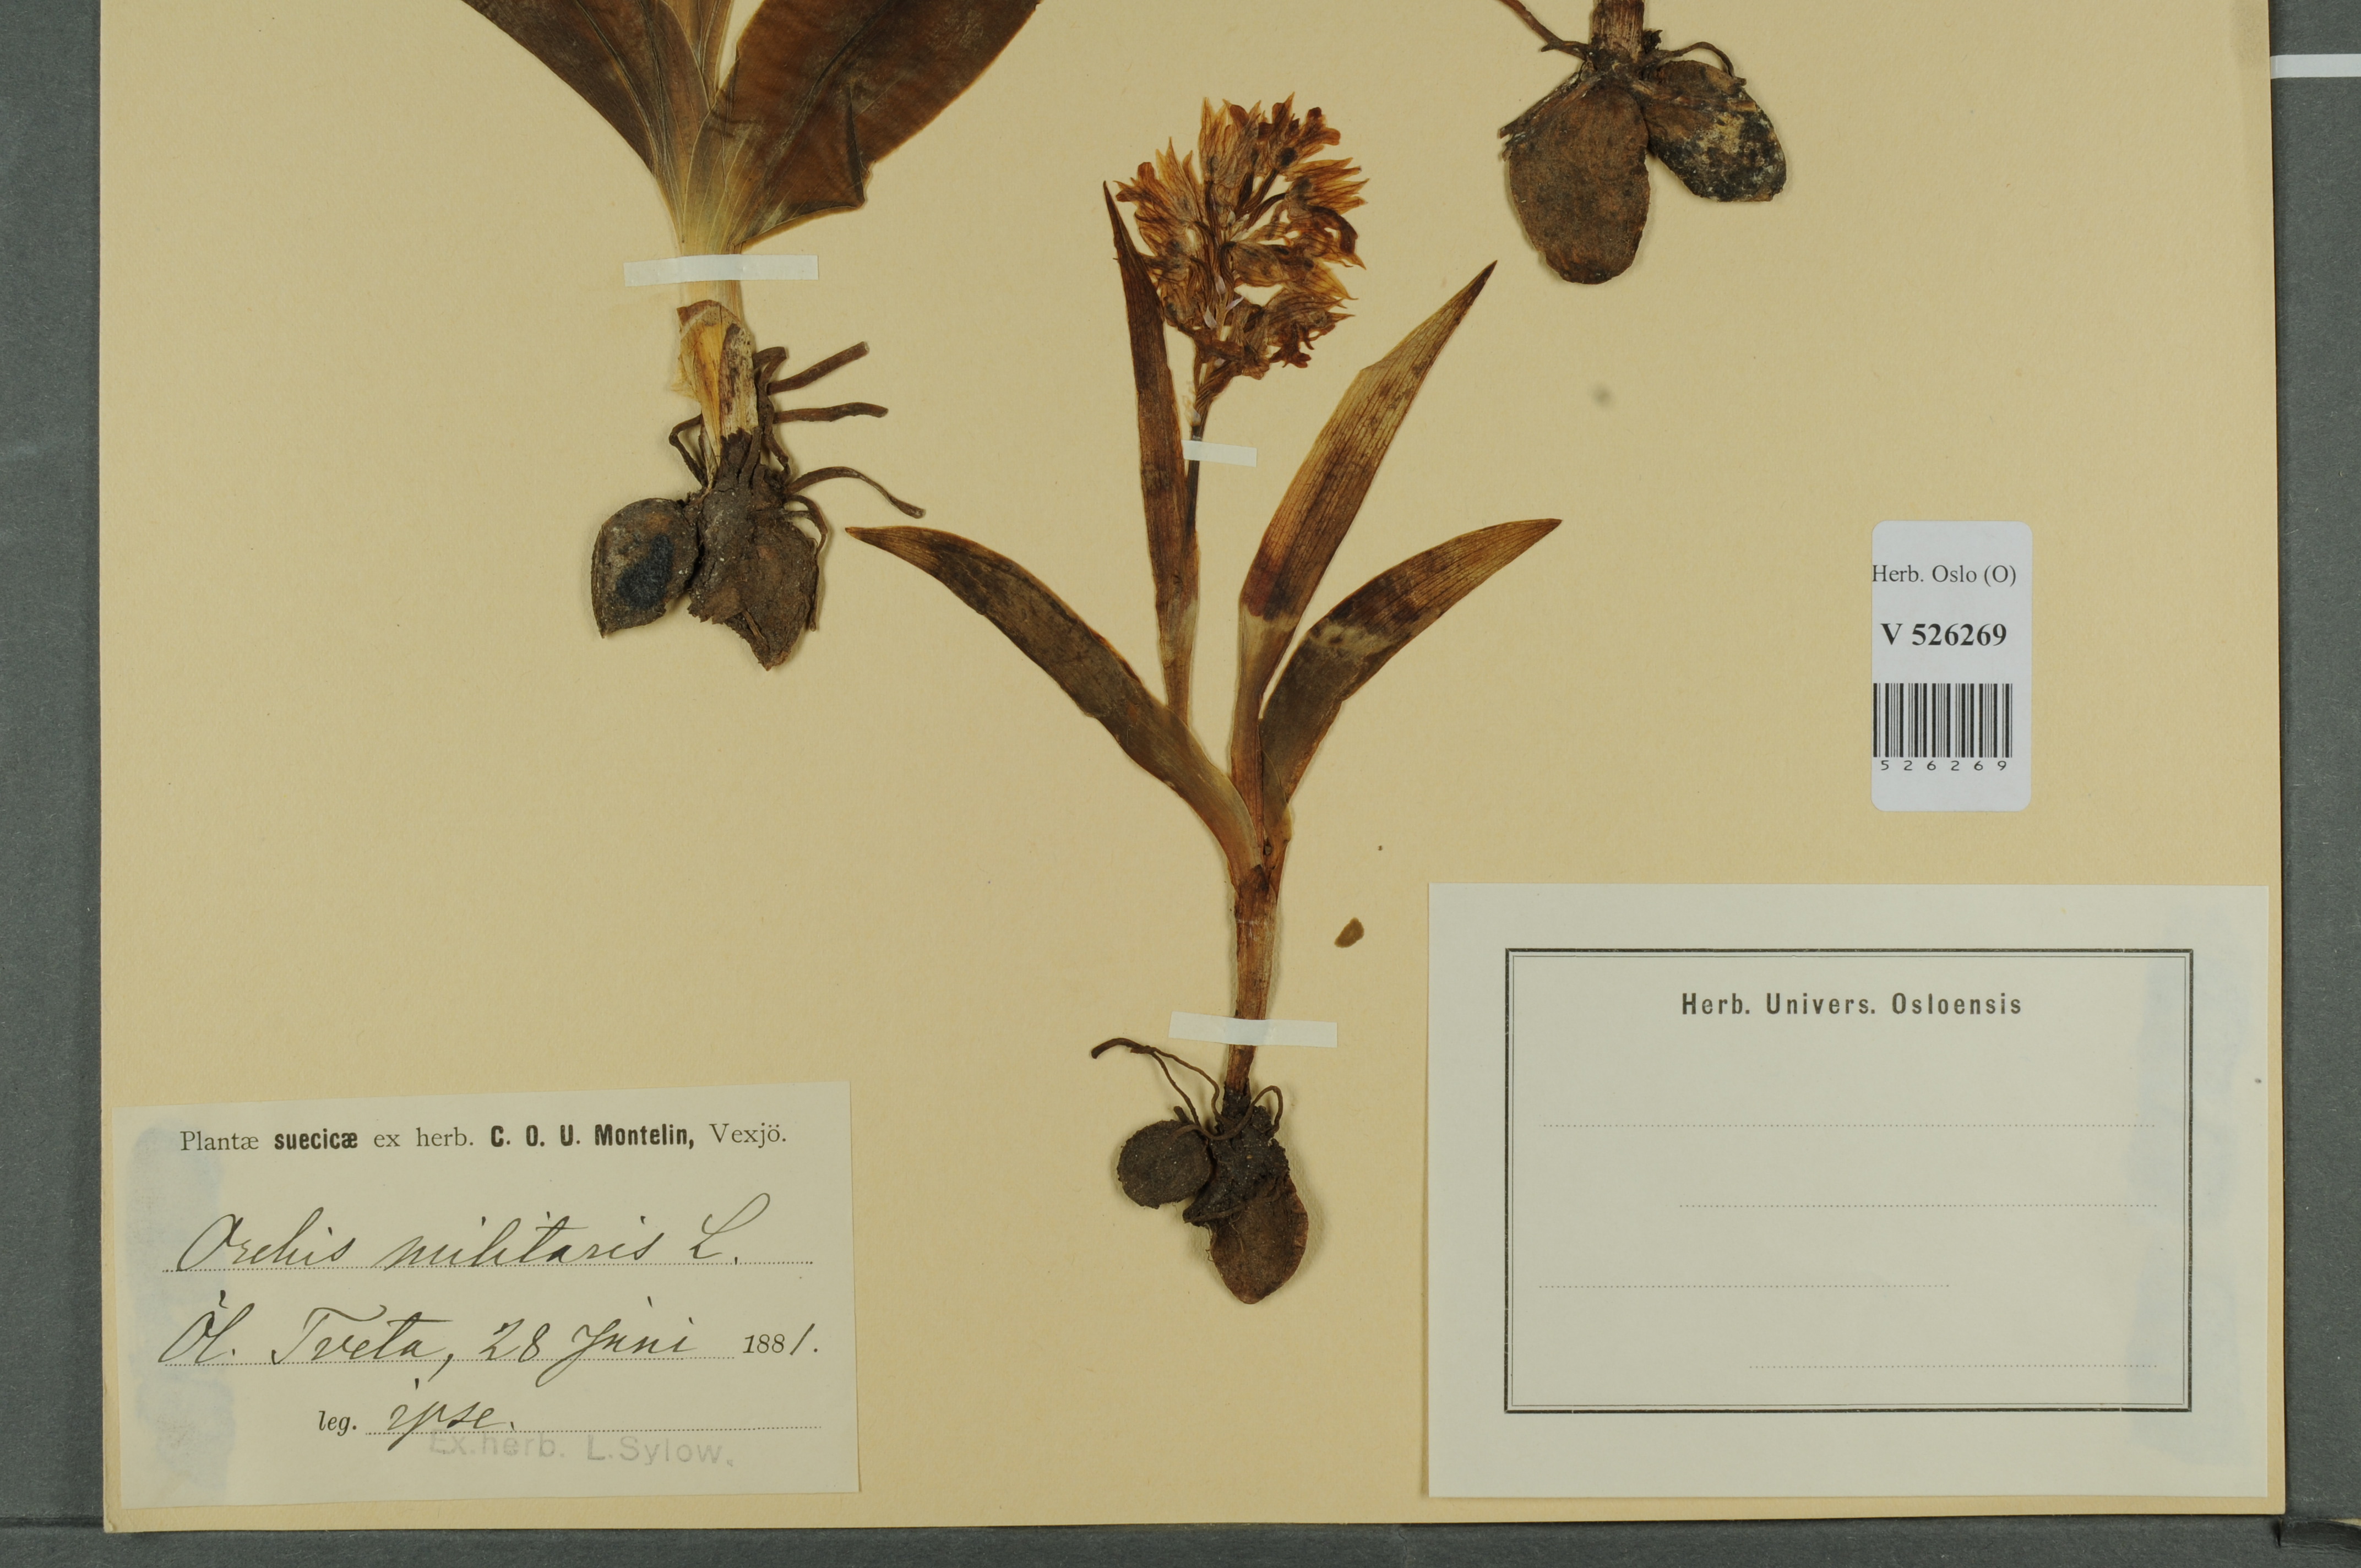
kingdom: Plantae
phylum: Tracheophyta
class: Liliopsida
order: Asparagales
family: Orchidaceae
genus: Orchis
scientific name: Orchis militaris
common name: Military orchid
